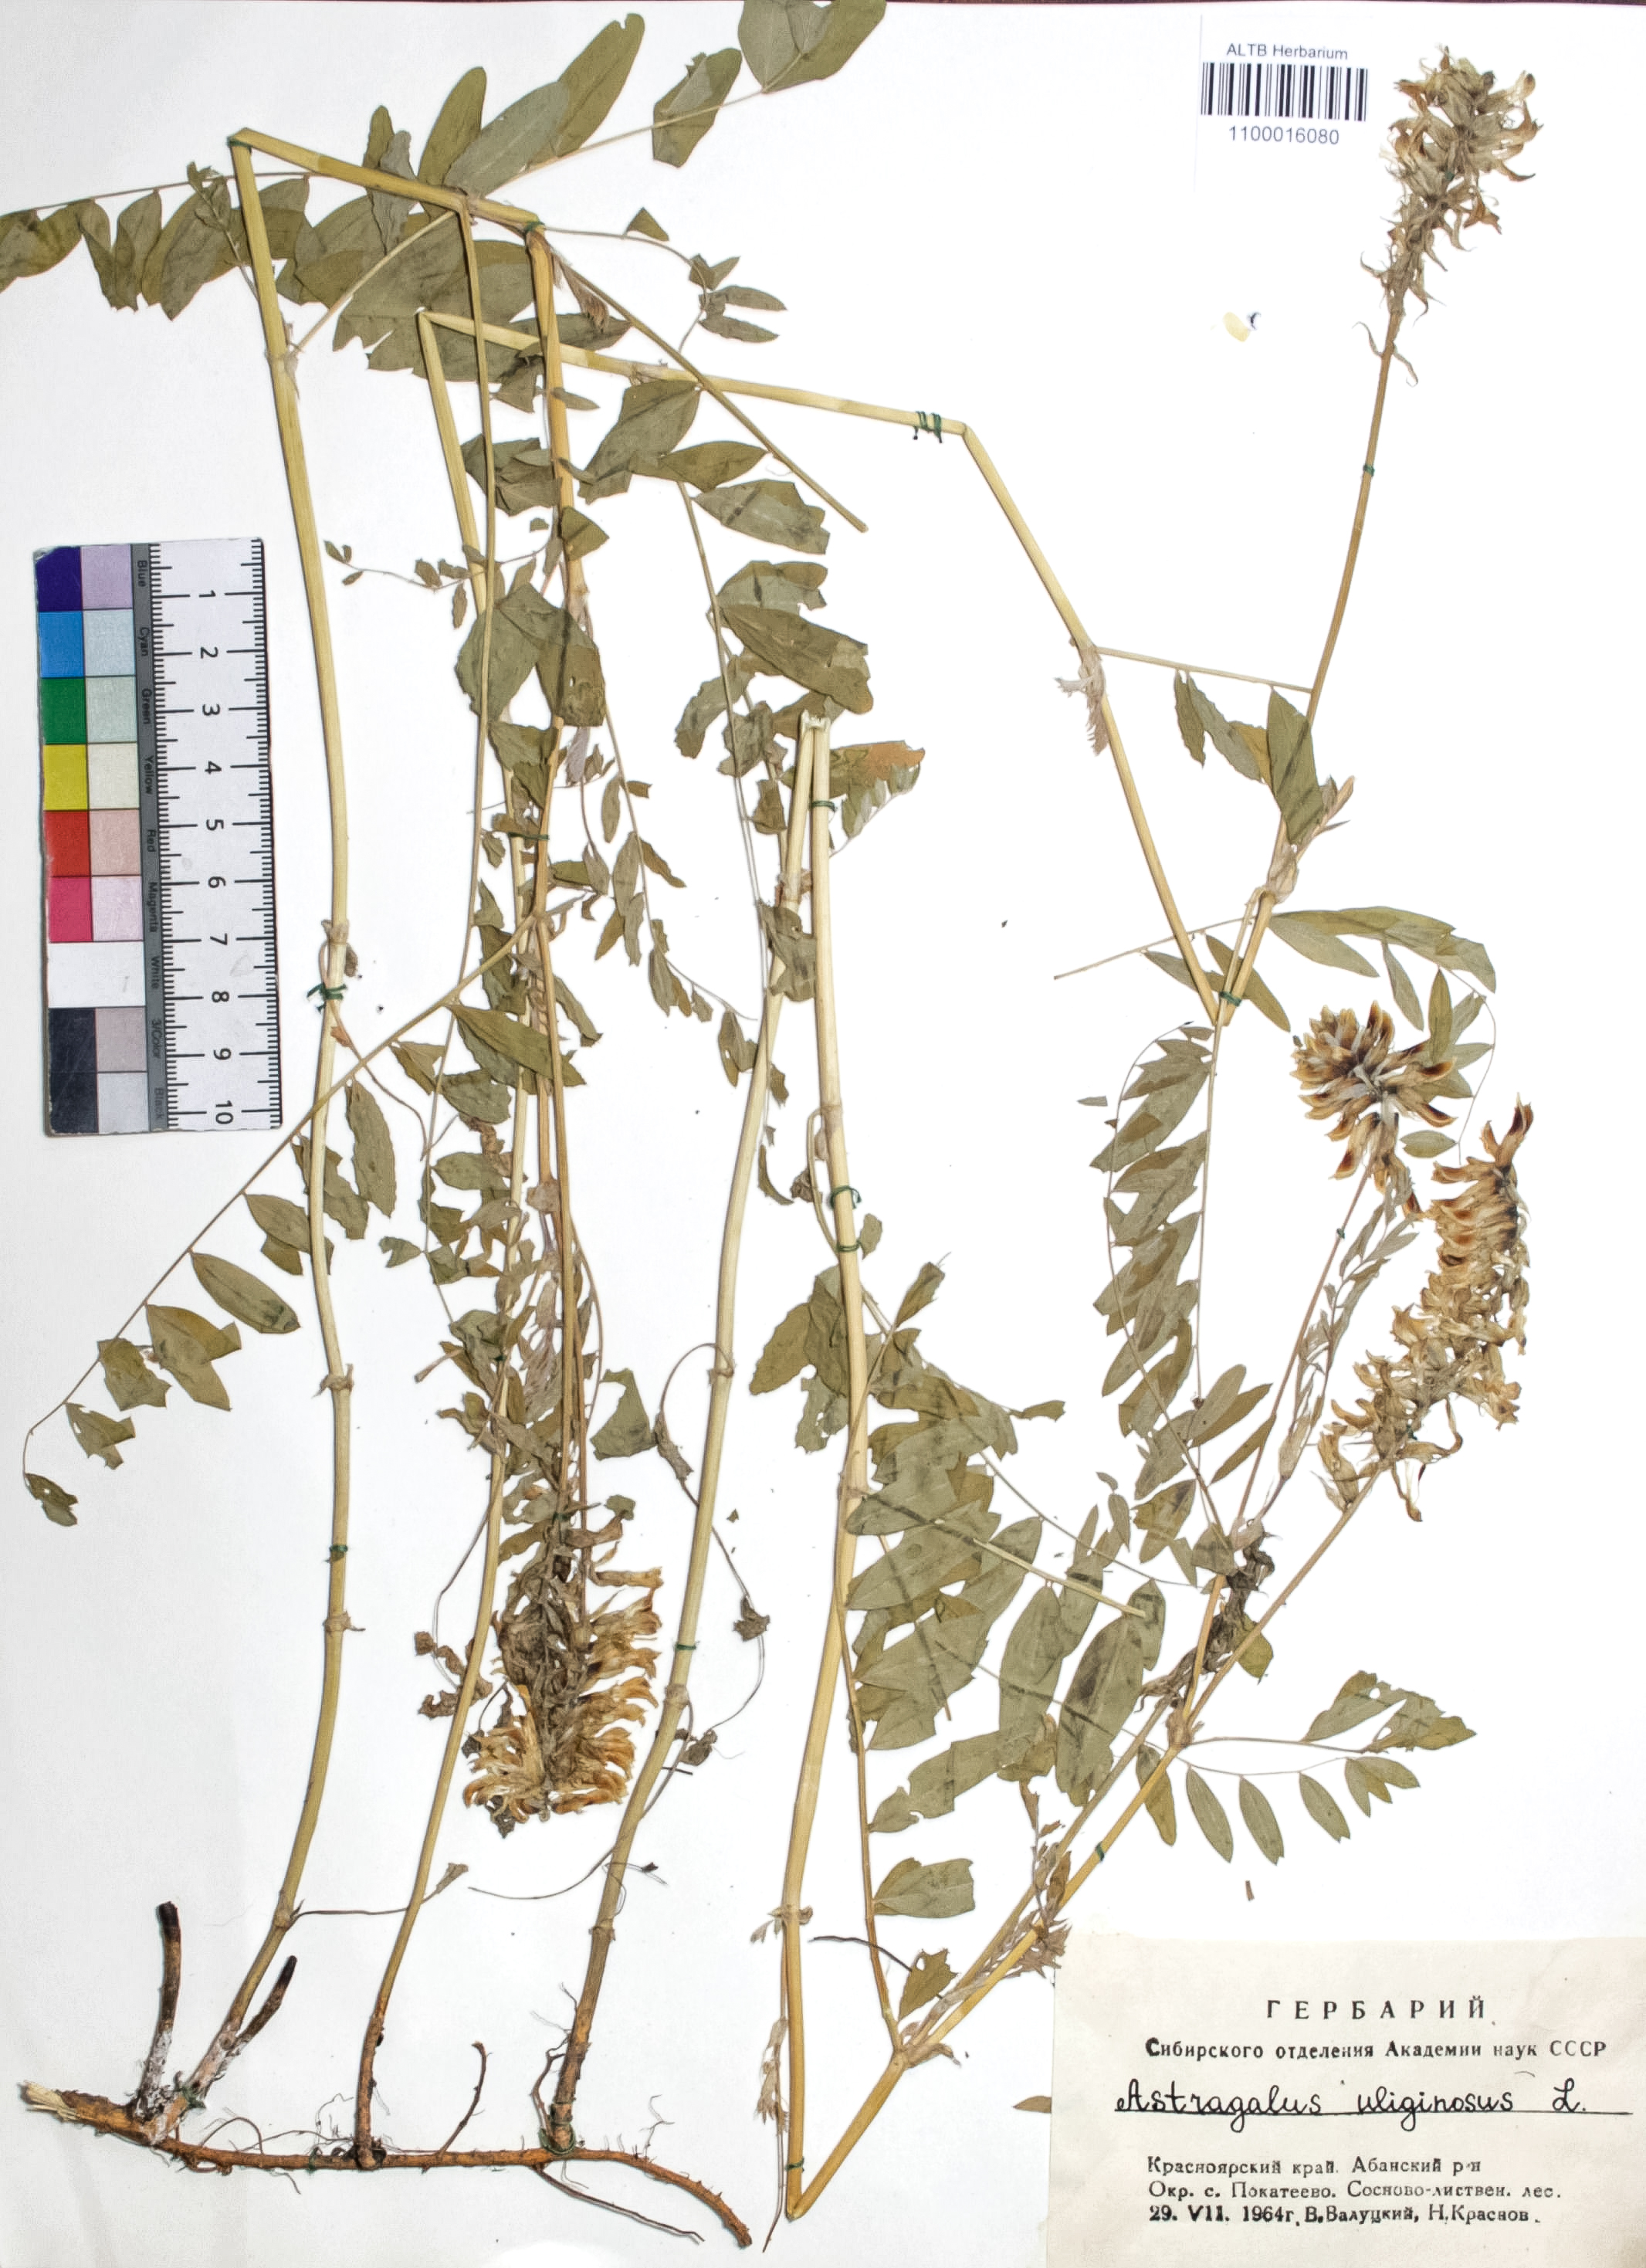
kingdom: Plantae
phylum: Tracheophyta
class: Magnoliopsida
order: Fabales
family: Fabaceae
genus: Astragalus
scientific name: Astragalus uliginosus
